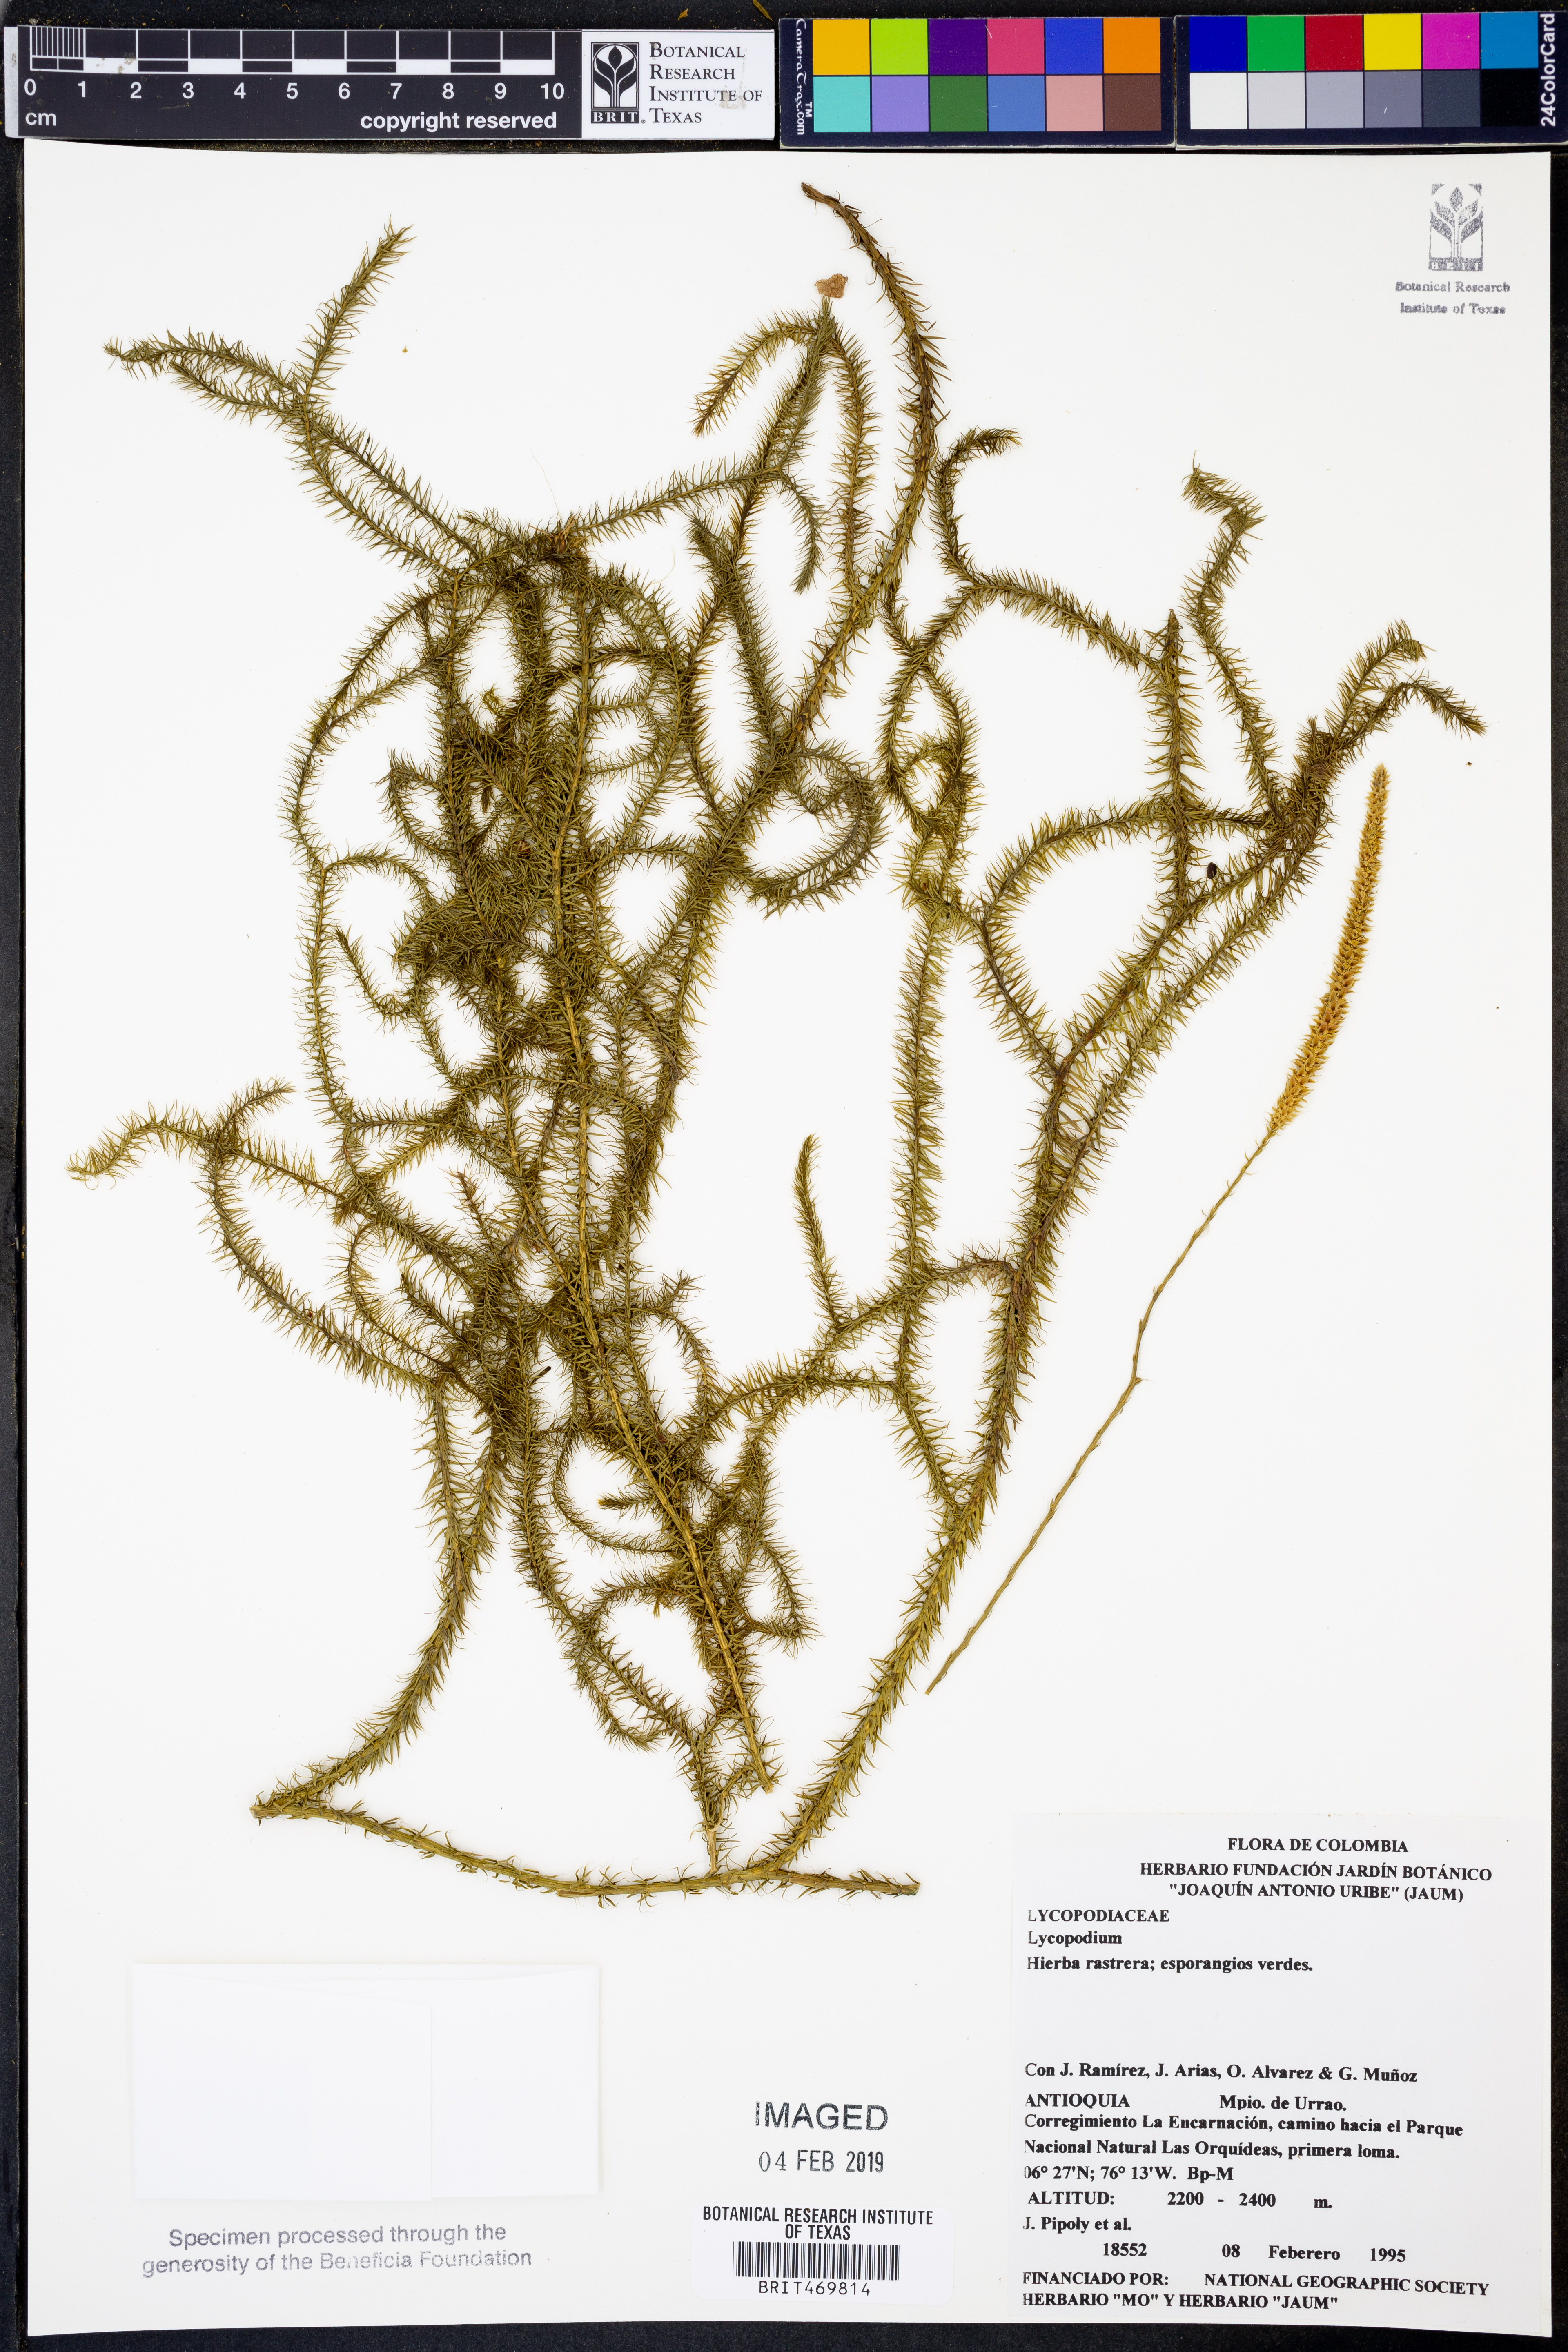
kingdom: Plantae
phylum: Tracheophyta
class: Lycopodiopsida
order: Lycopodiales
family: Lycopodiaceae
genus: Lycopodium
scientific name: Lycopodium
